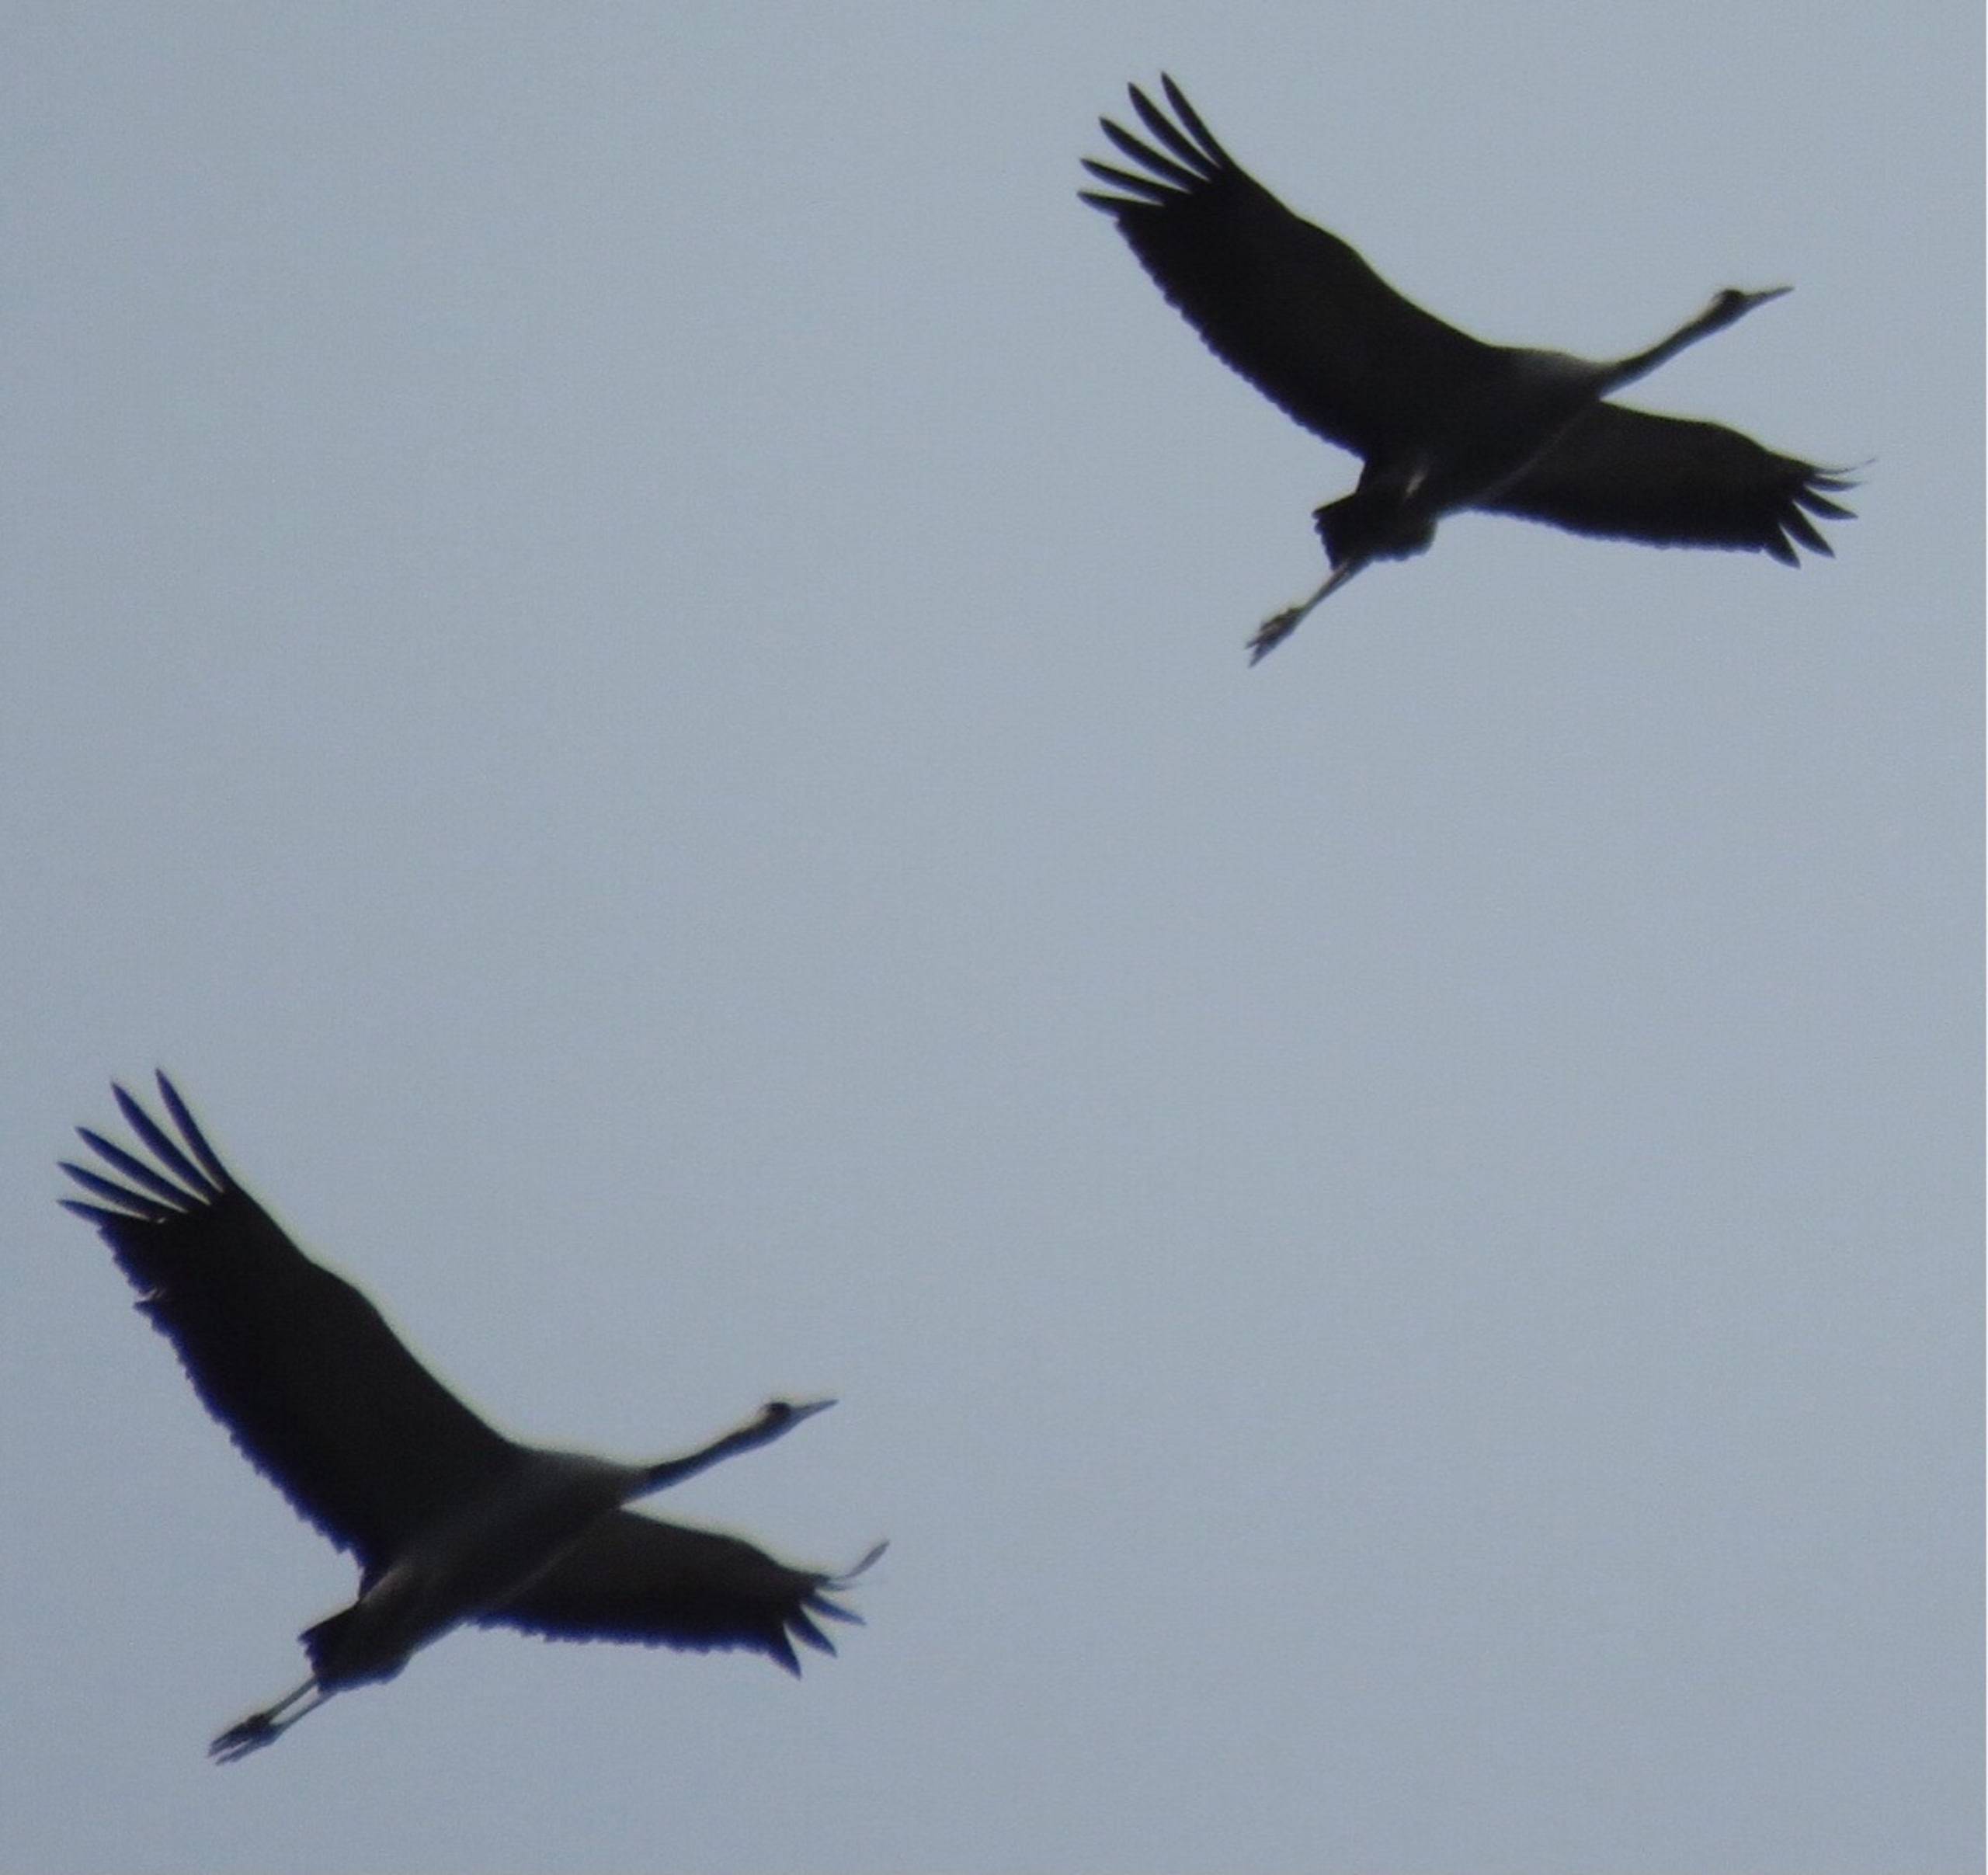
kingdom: Animalia
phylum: Chordata
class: Aves
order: Gruiformes
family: Gruidae
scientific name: Gruidae
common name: Traner
